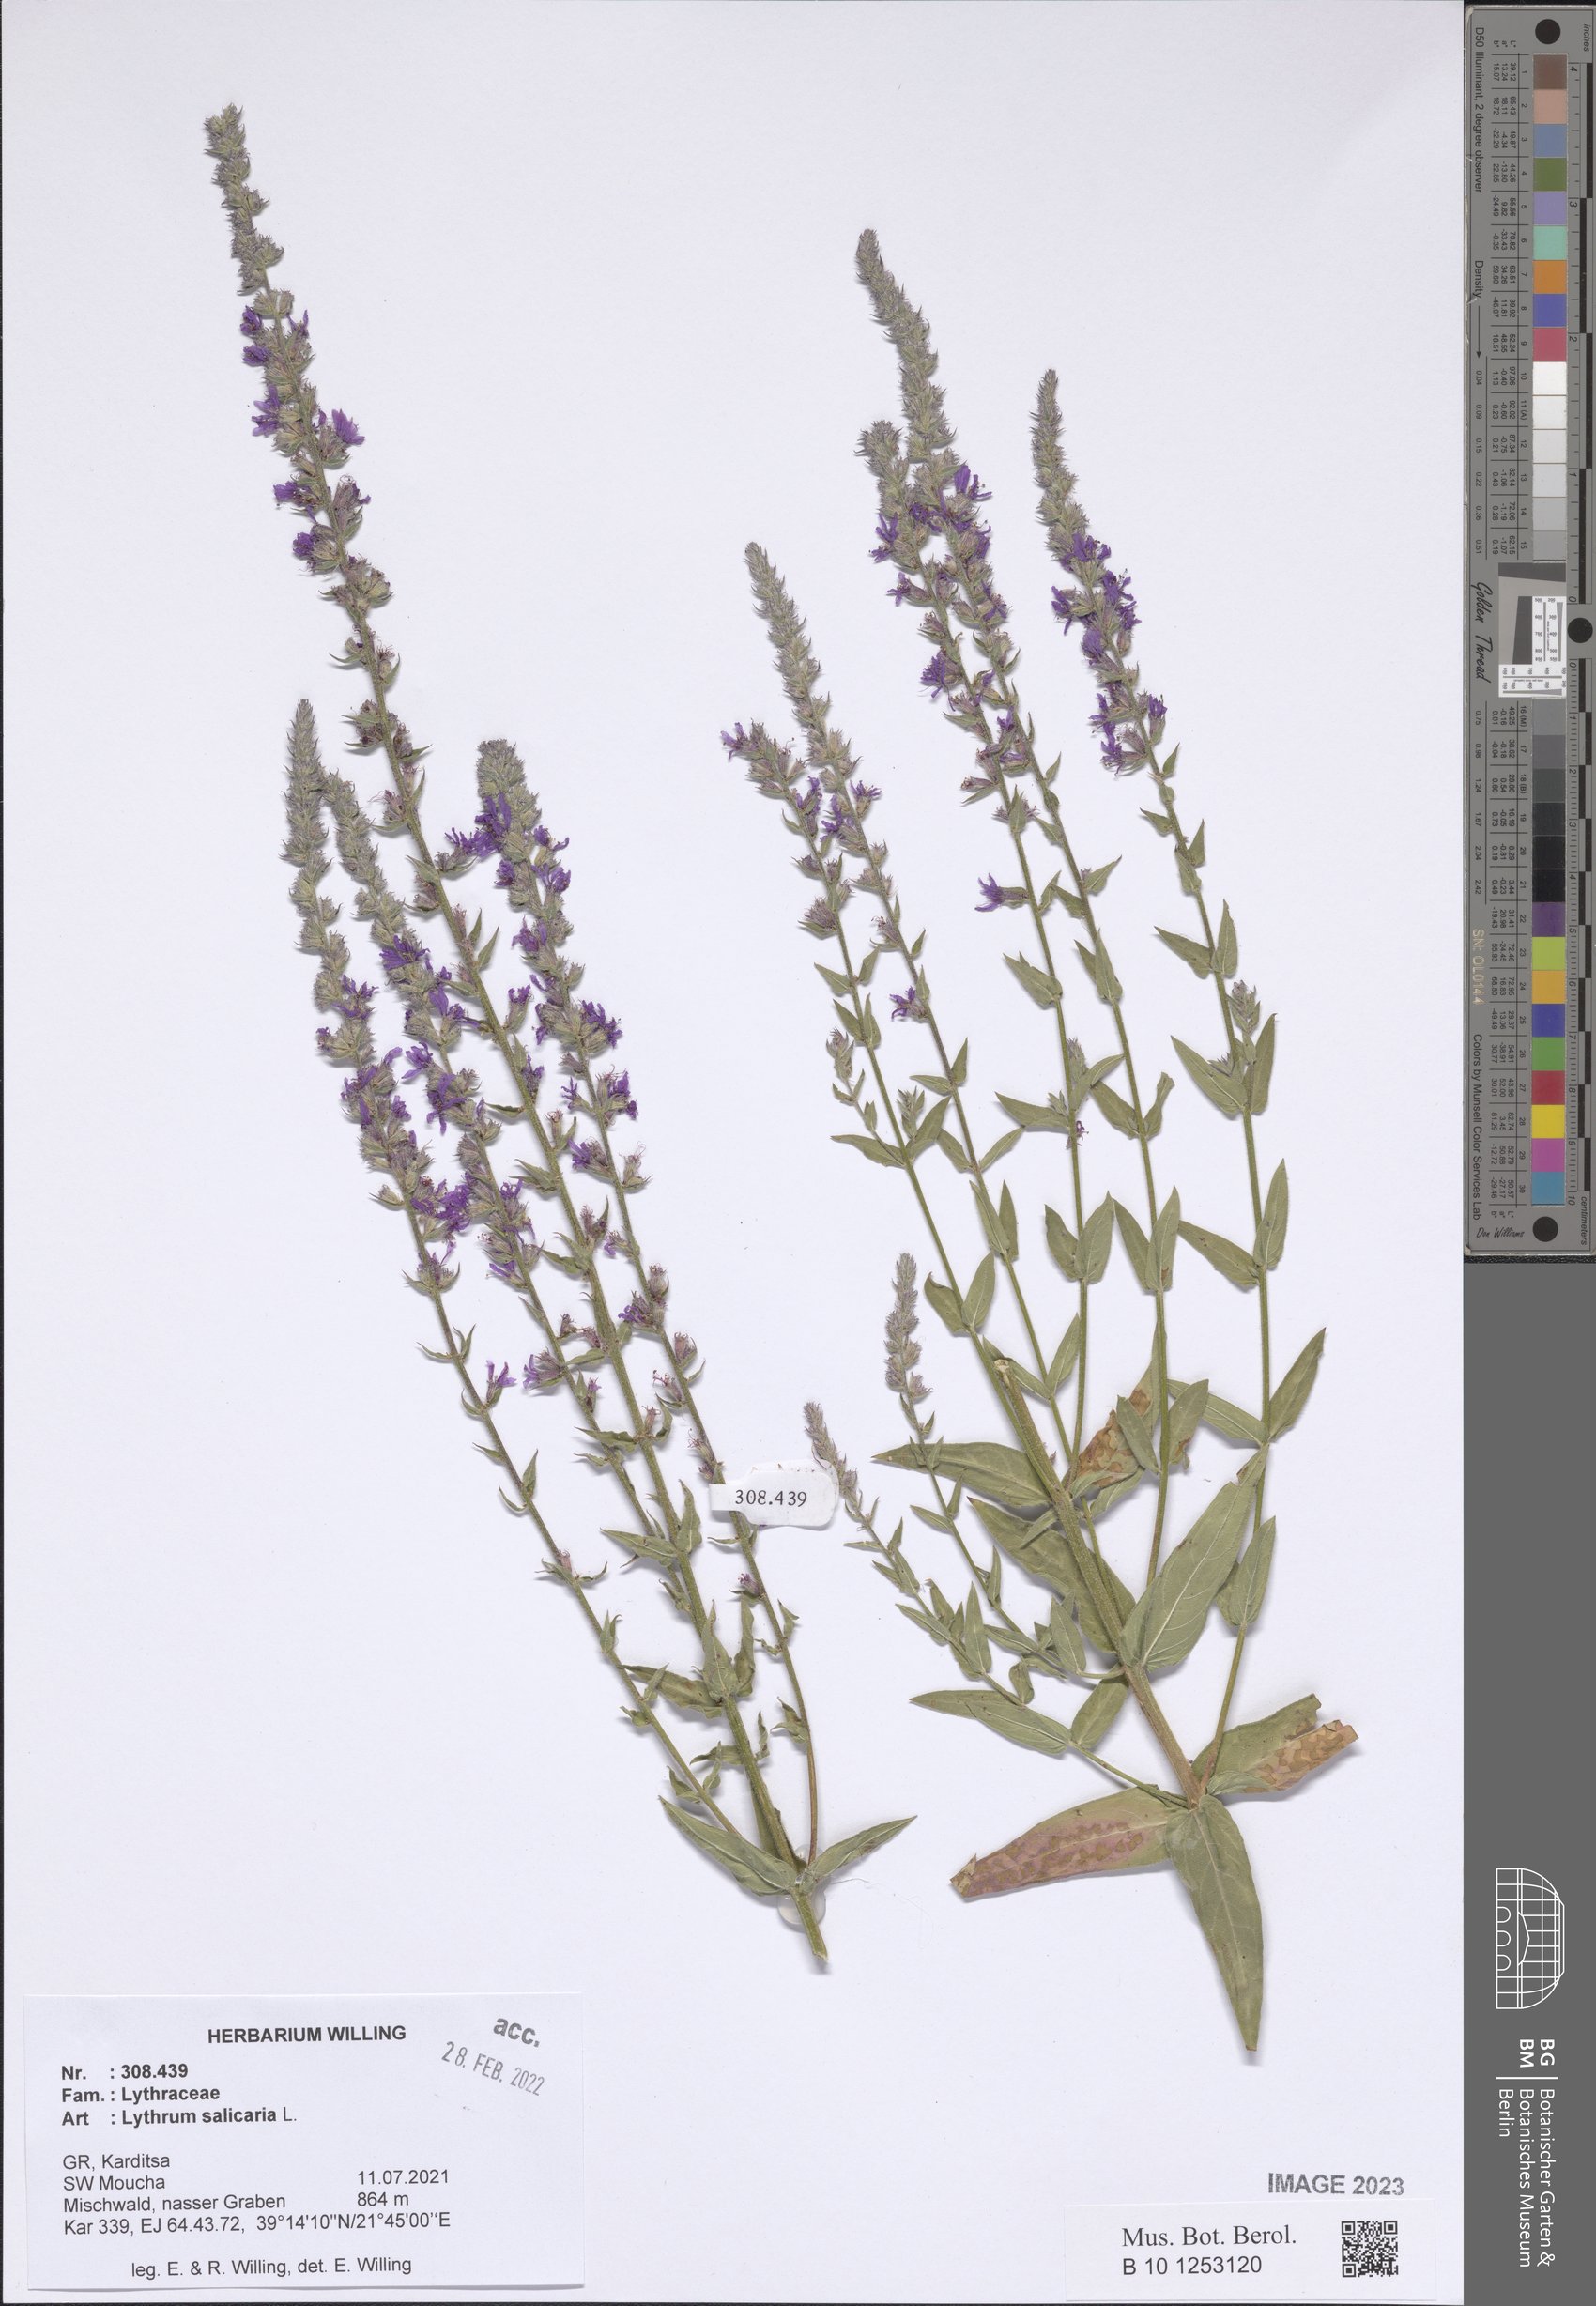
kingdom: Plantae
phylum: Tracheophyta
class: Magnoliopsida
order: Myrtales
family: Lythraceae
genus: Lythrum
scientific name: Lythrum salicaria
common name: Purple loosestrife
